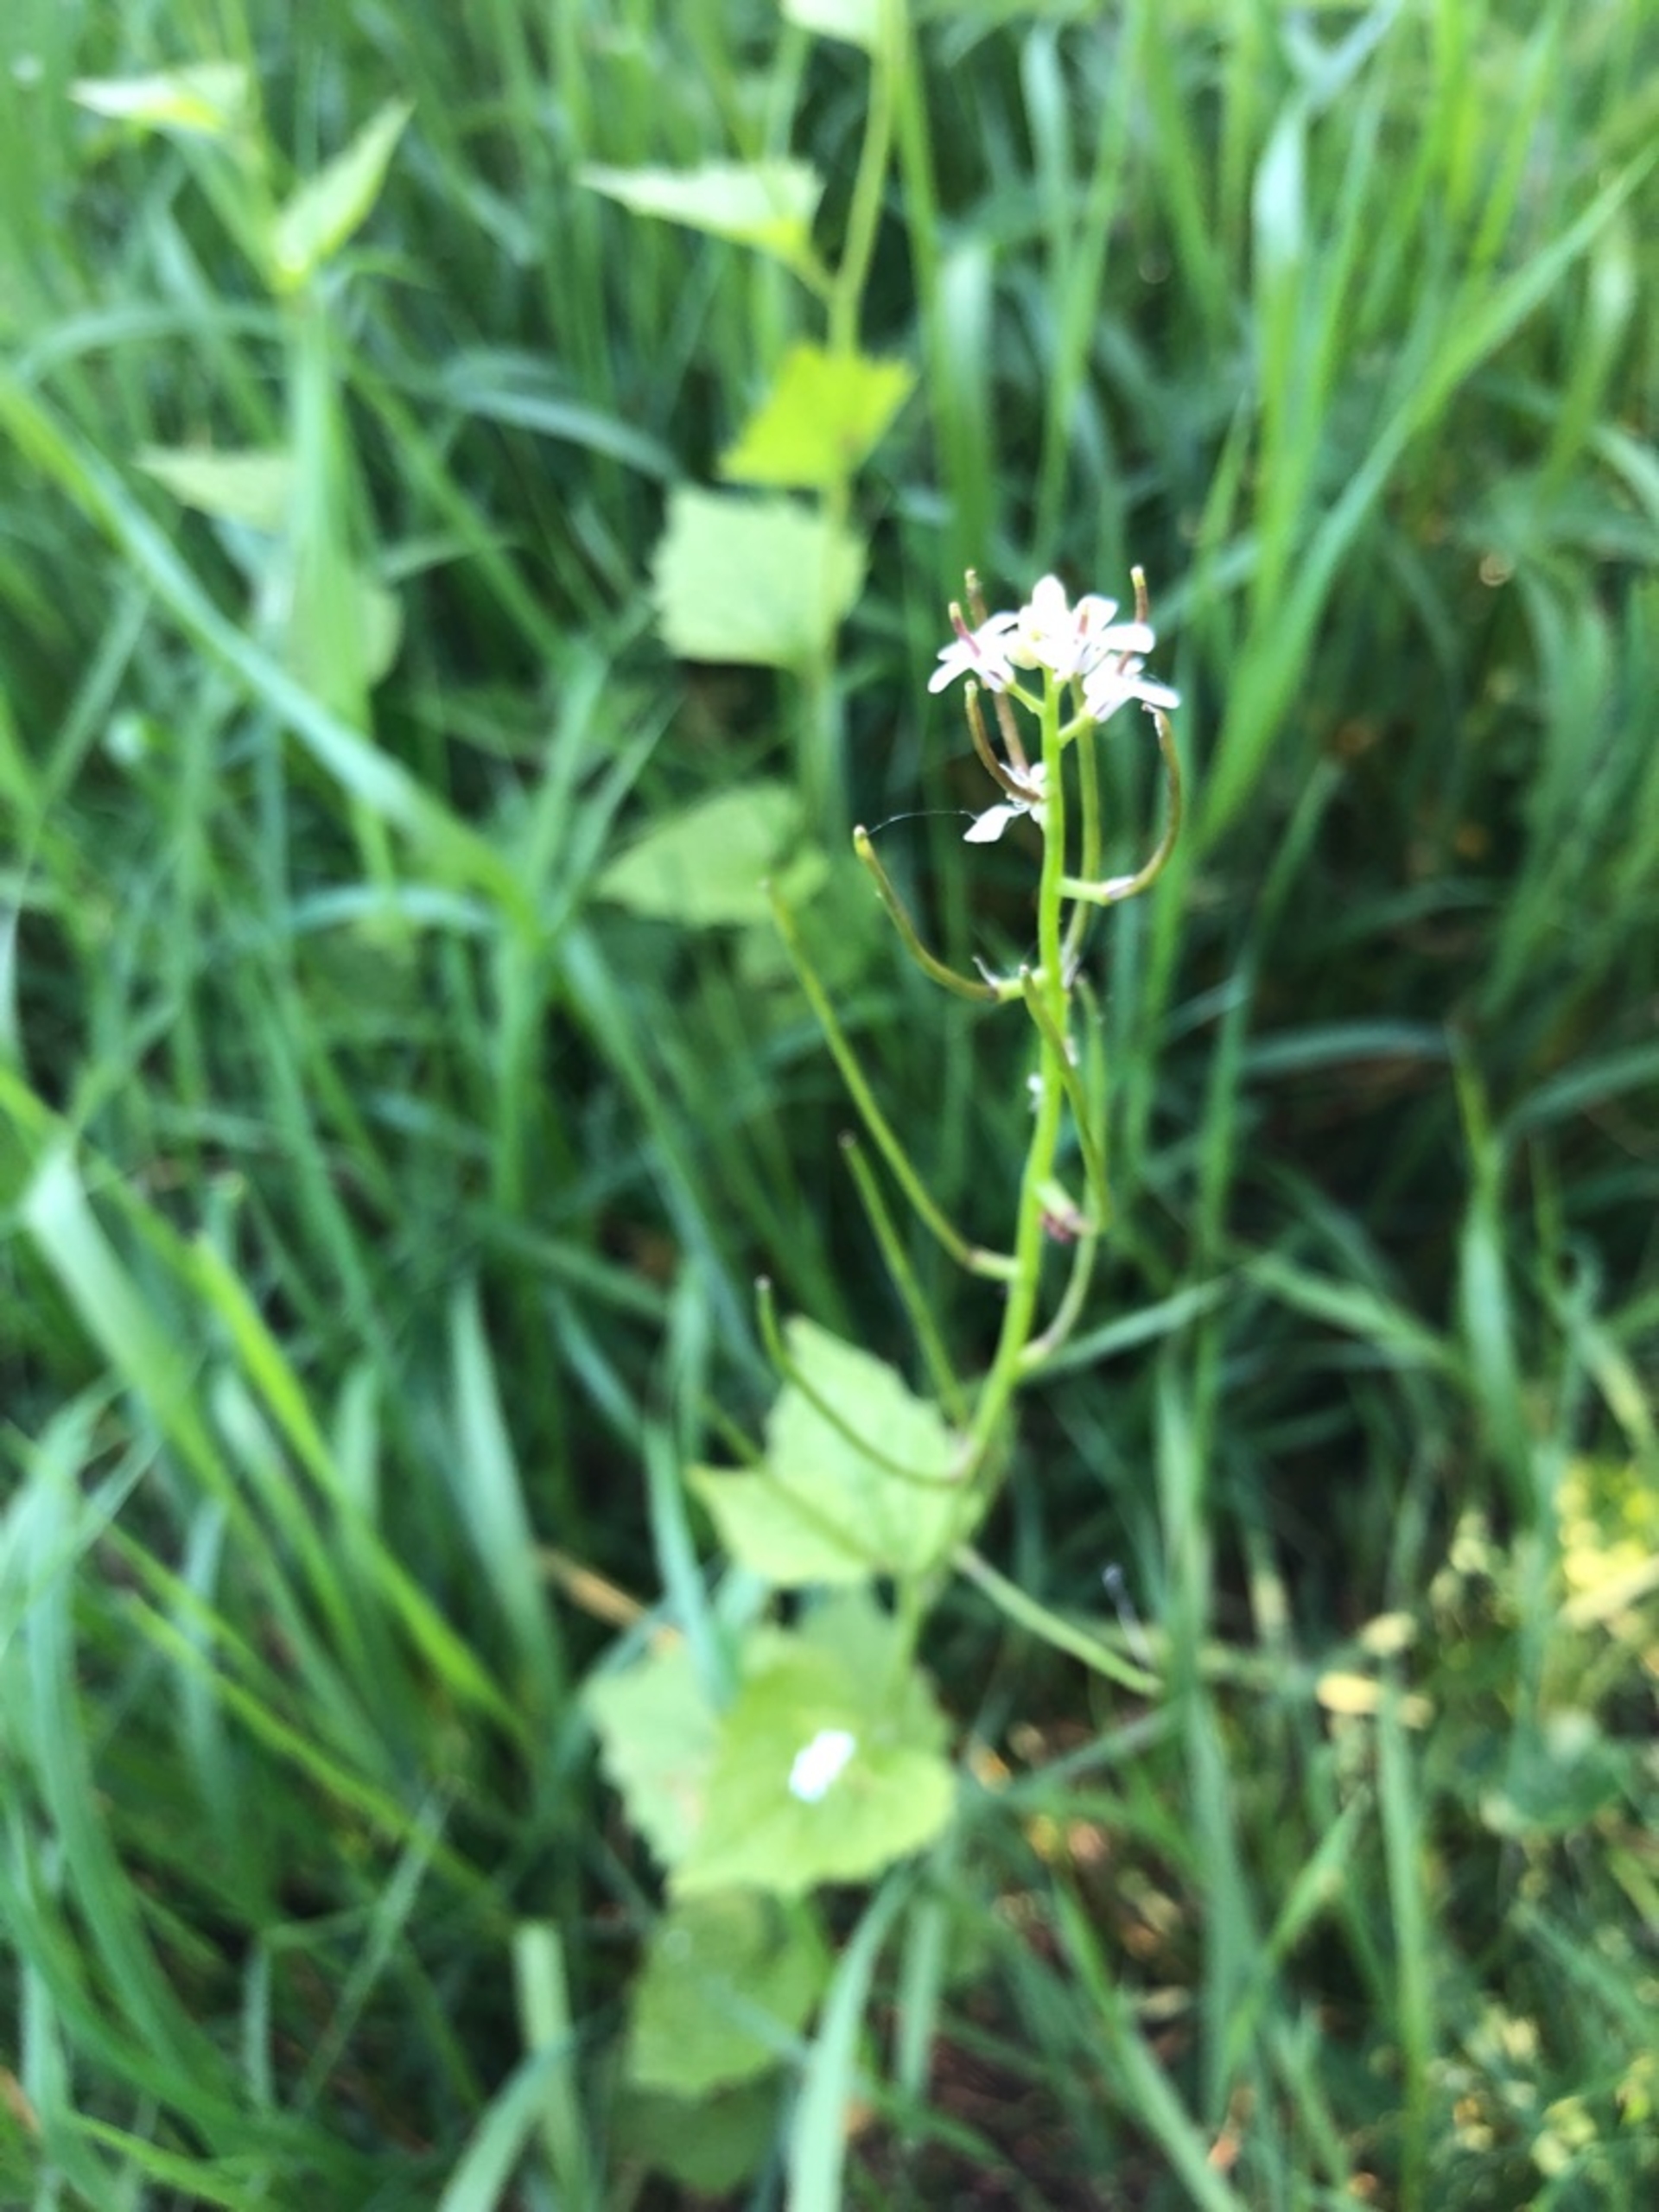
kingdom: Plantae
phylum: Tracheophyta
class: Magnoliopsida
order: Brassicales
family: Brassicaceae
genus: Alliaria
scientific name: Alliaria petiolata
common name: Løgkarse
